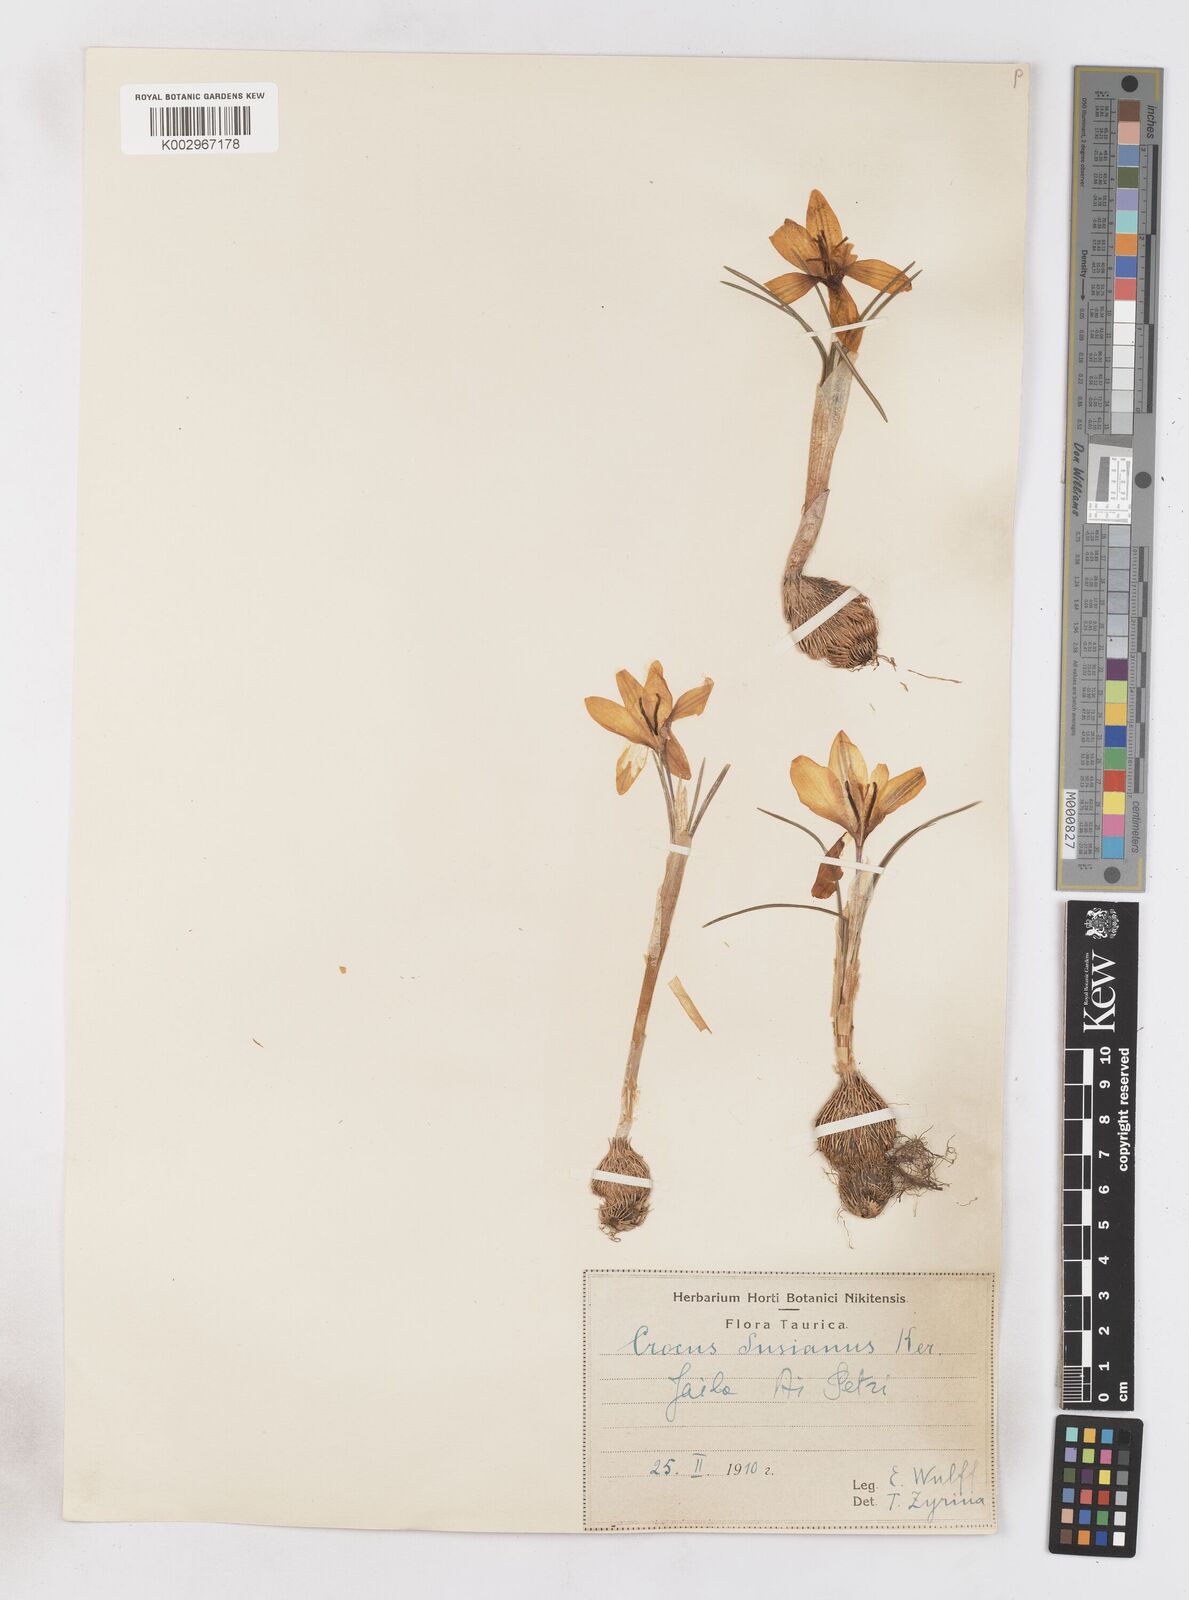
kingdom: Plantae
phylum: Tracheophyta
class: Liliopsida
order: Asparagales
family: Iridaceae
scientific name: Iridaceae
